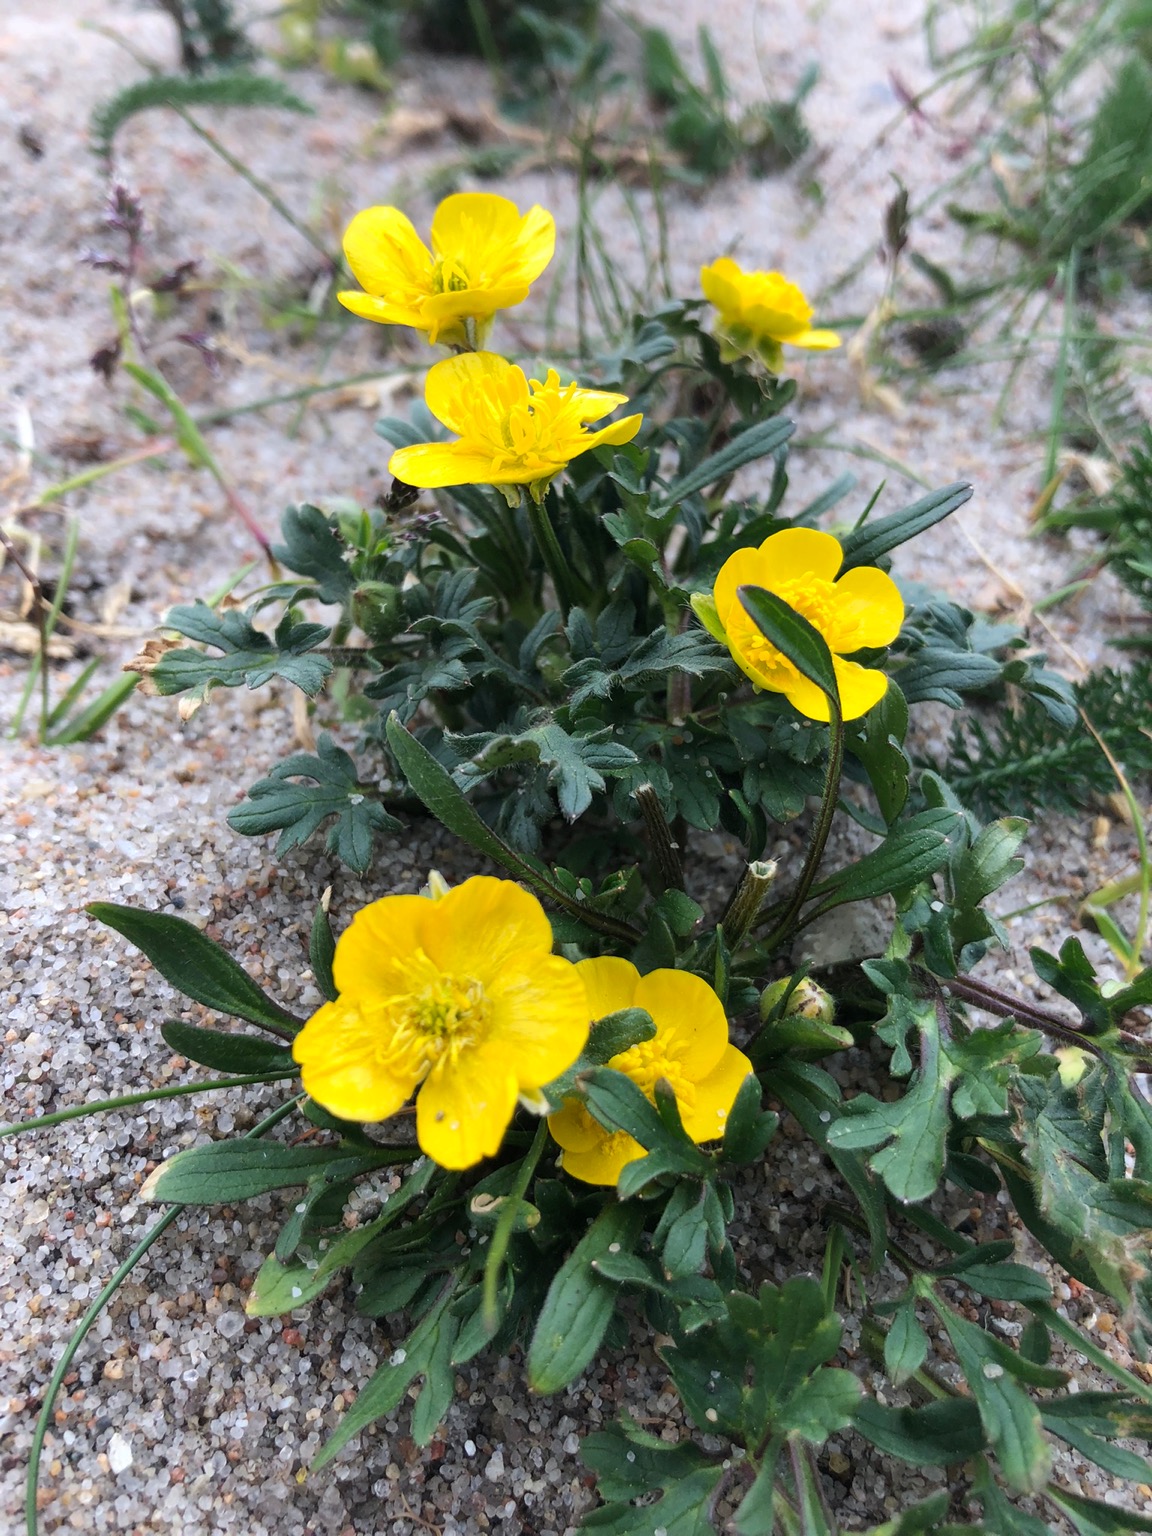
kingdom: Plantae
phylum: Tracheophyta
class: Magnoliopsida
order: Ranunculales
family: Ranunculaceae
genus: Ranunculus
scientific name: Ranunculus bulbosus
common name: Knold-ranunkel
